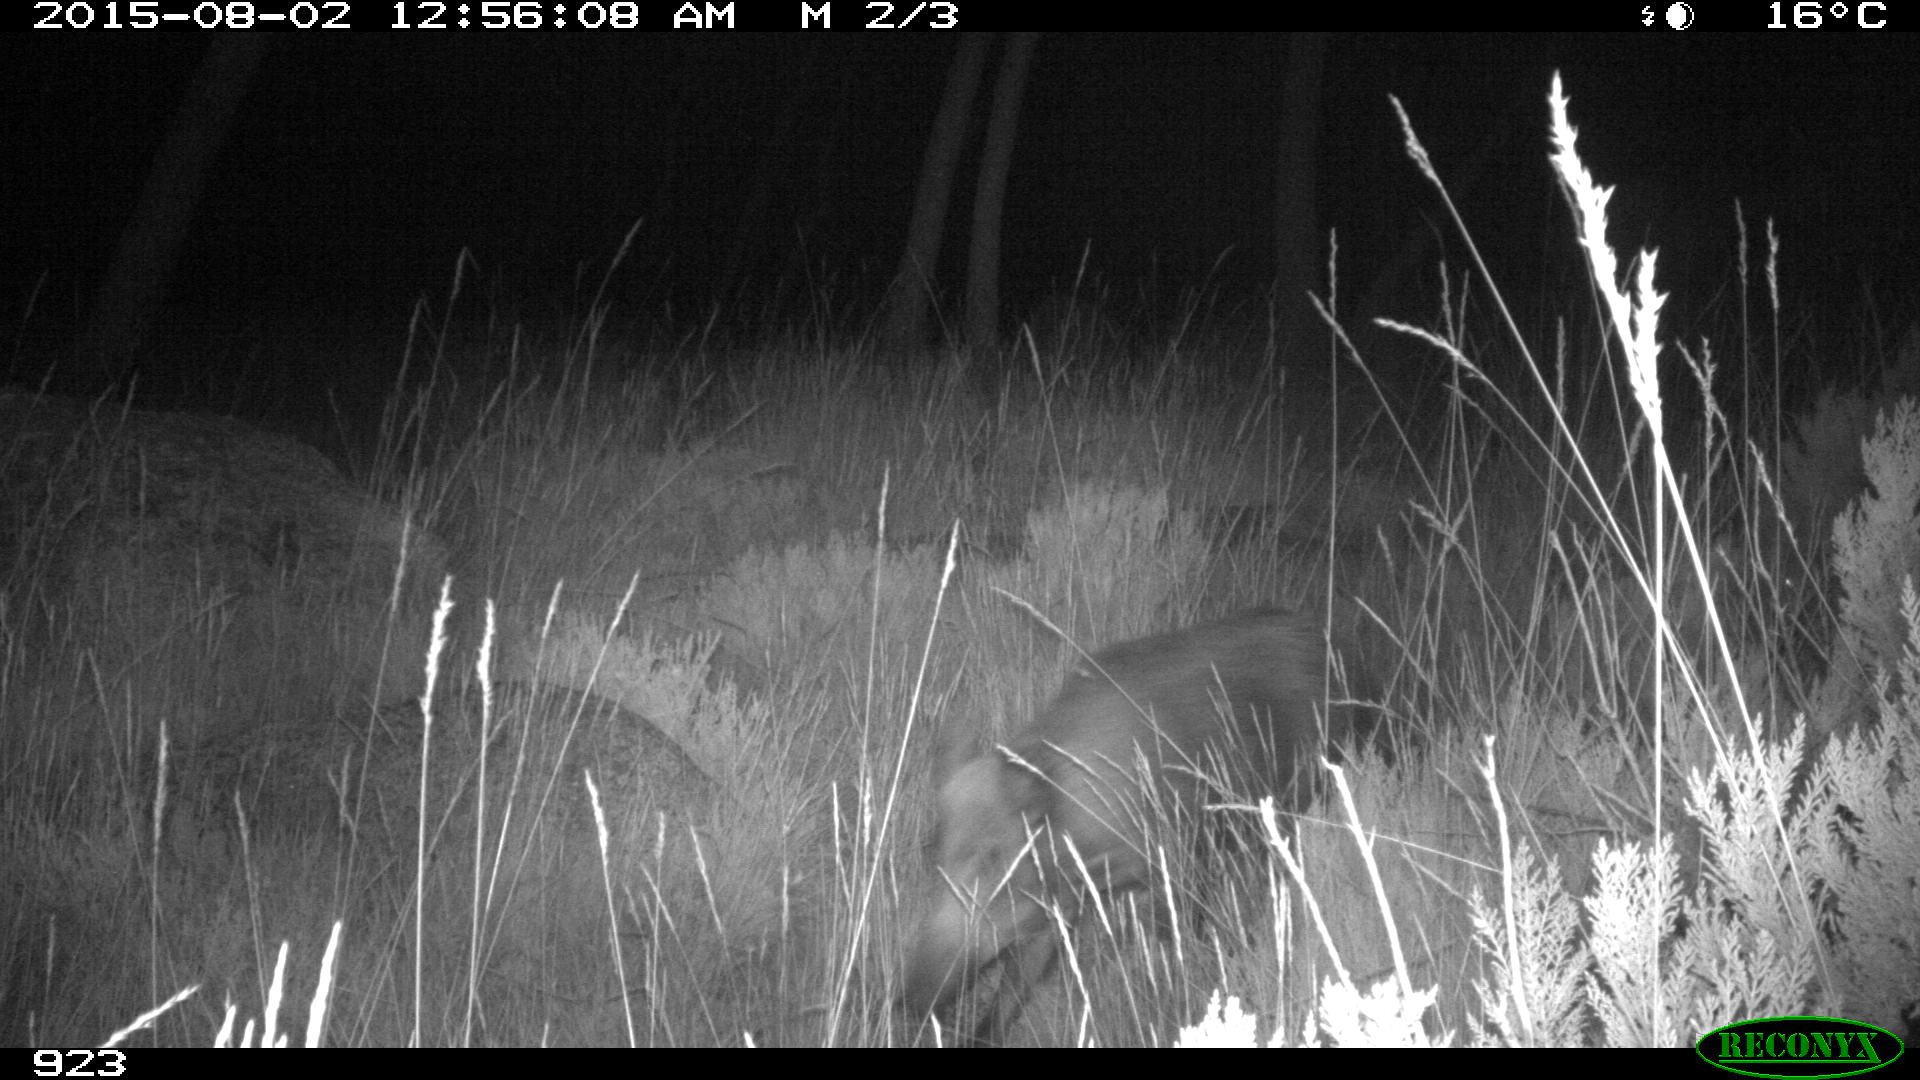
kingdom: Animalia
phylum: Chordata
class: Mammalia
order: Artiodactyla
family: Suidae
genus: Sus
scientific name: Sus scrofa
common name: Wild boar
